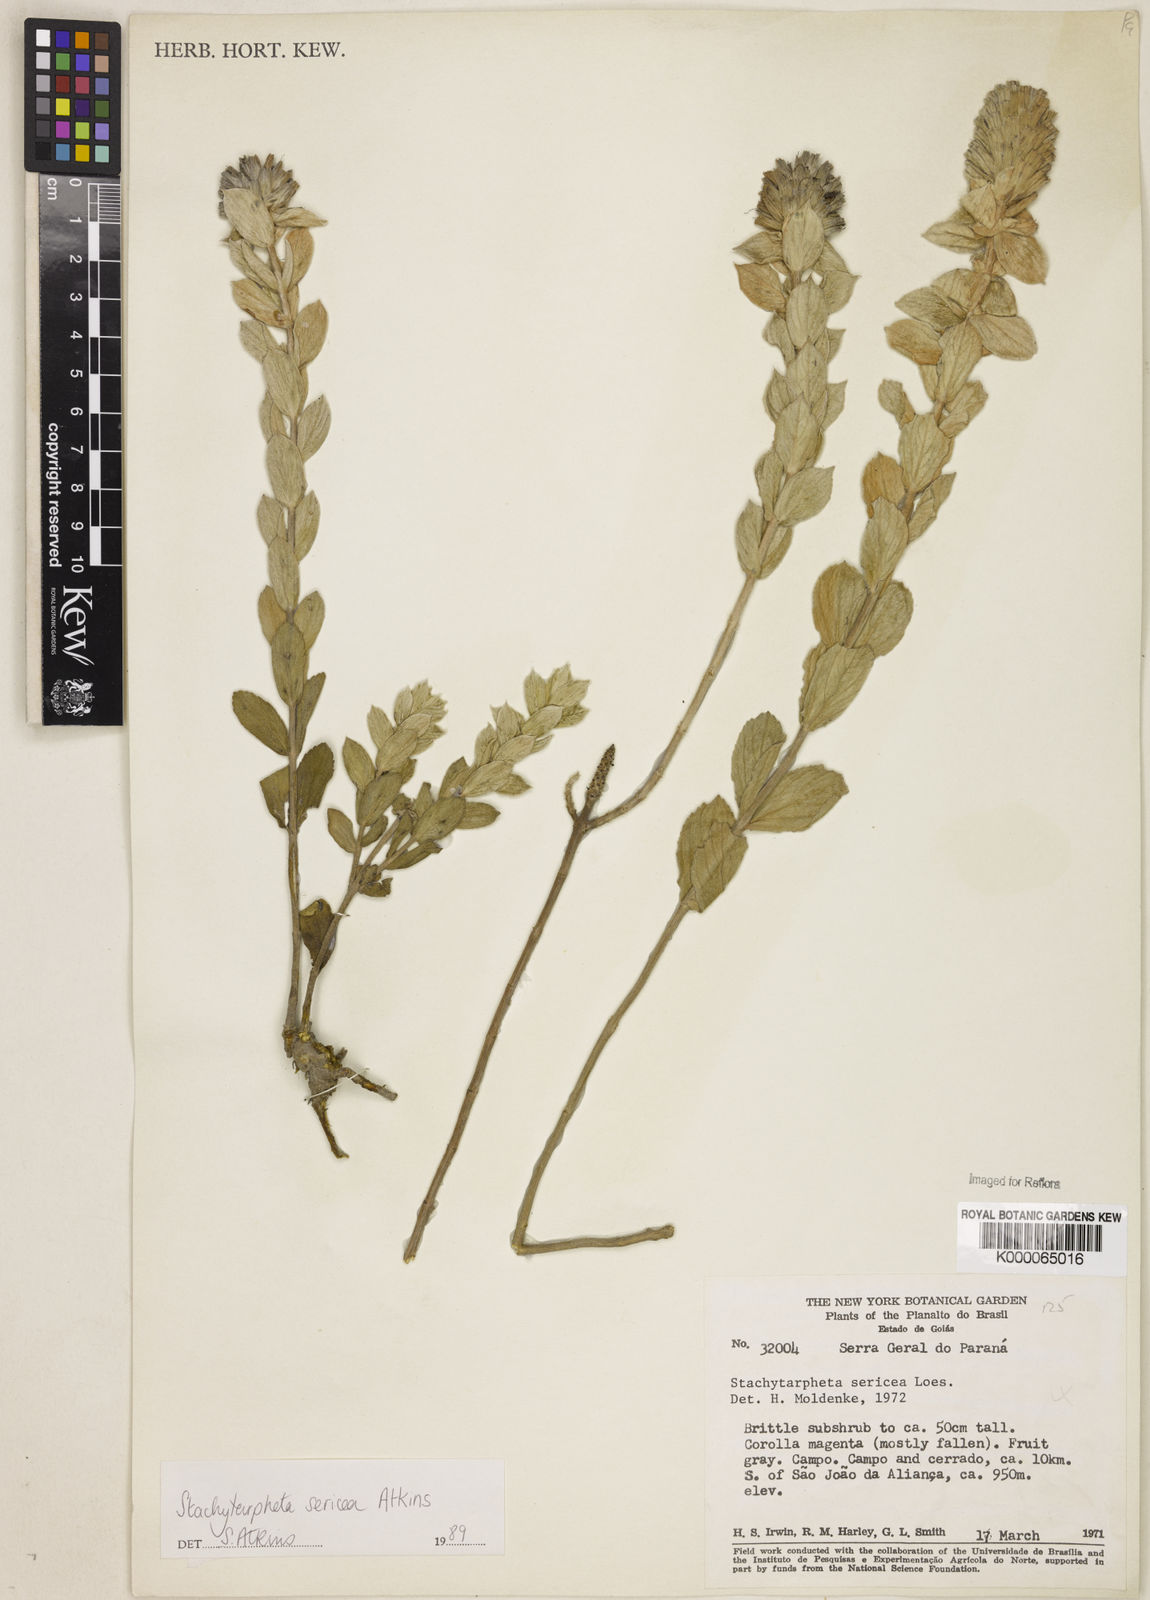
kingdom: Plantae
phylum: Tracheophyta
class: Magnoliopsida
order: Lamiales
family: Verbenaceae
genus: Stachytarpheta
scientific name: Stachytarpheta sericea
